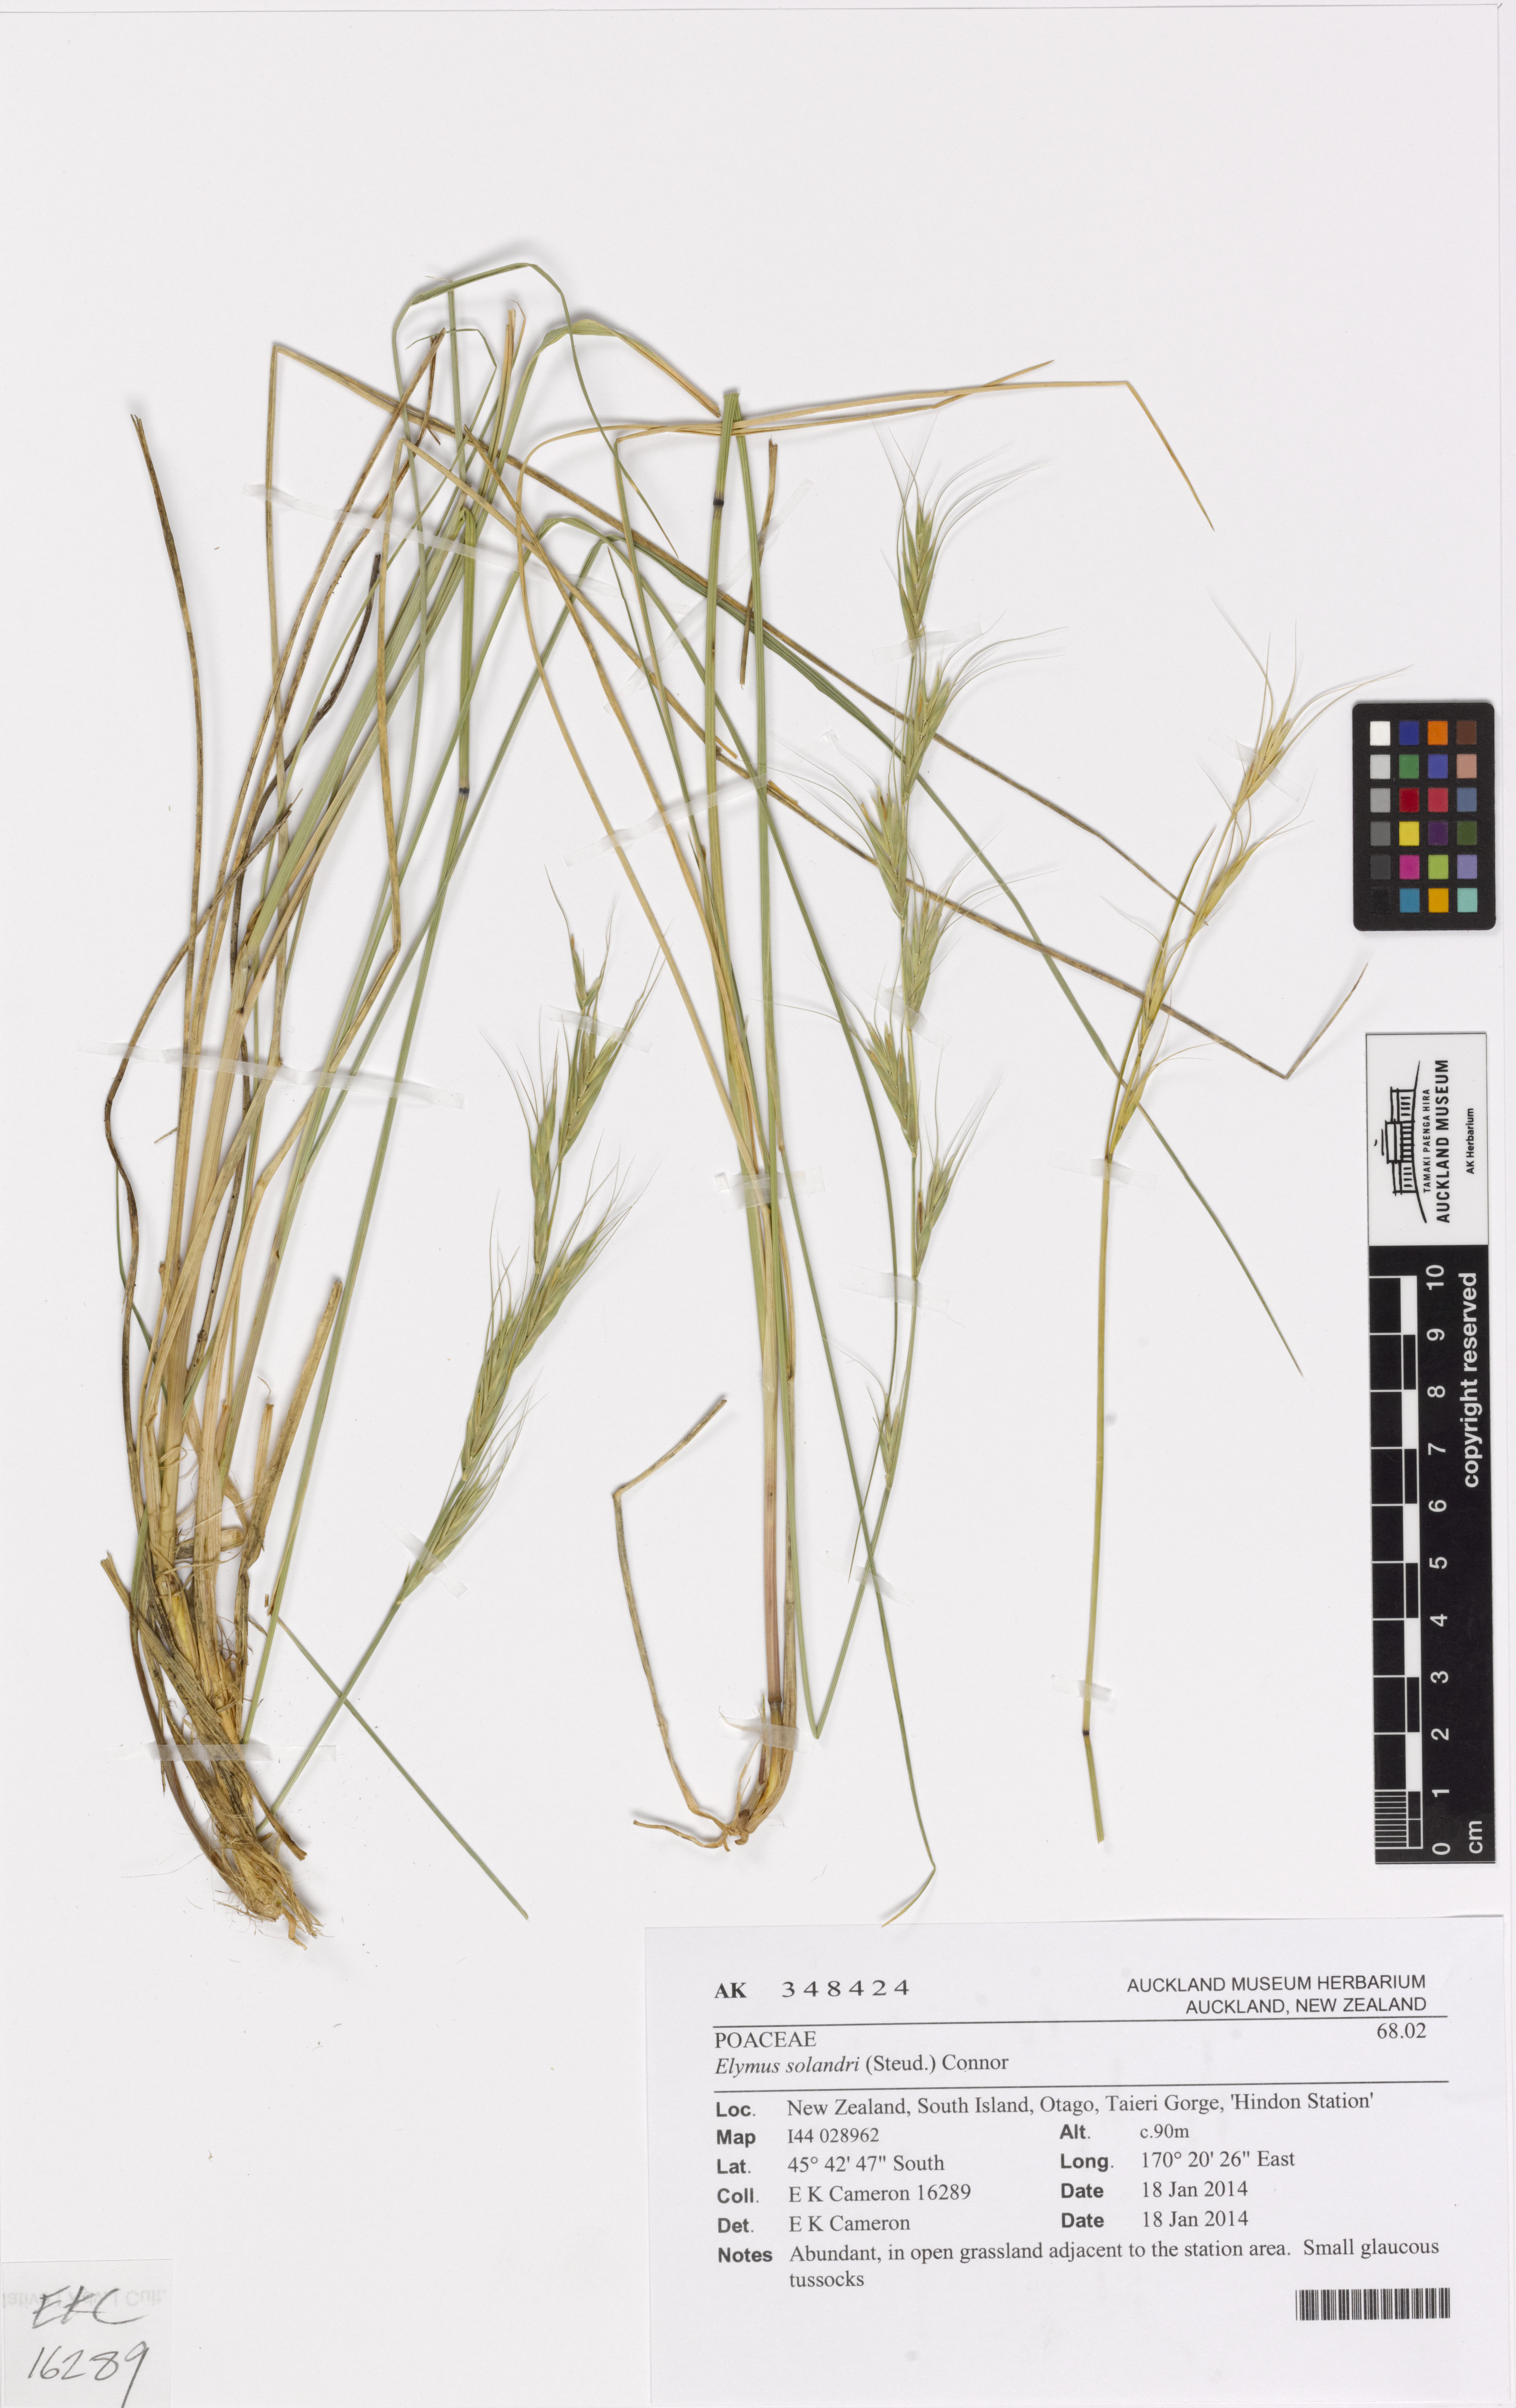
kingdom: Plantae
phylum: Tracheophyta
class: Liliopsida
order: Poales
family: Poaceae
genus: Anthosachne
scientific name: Anthosachne solandri
